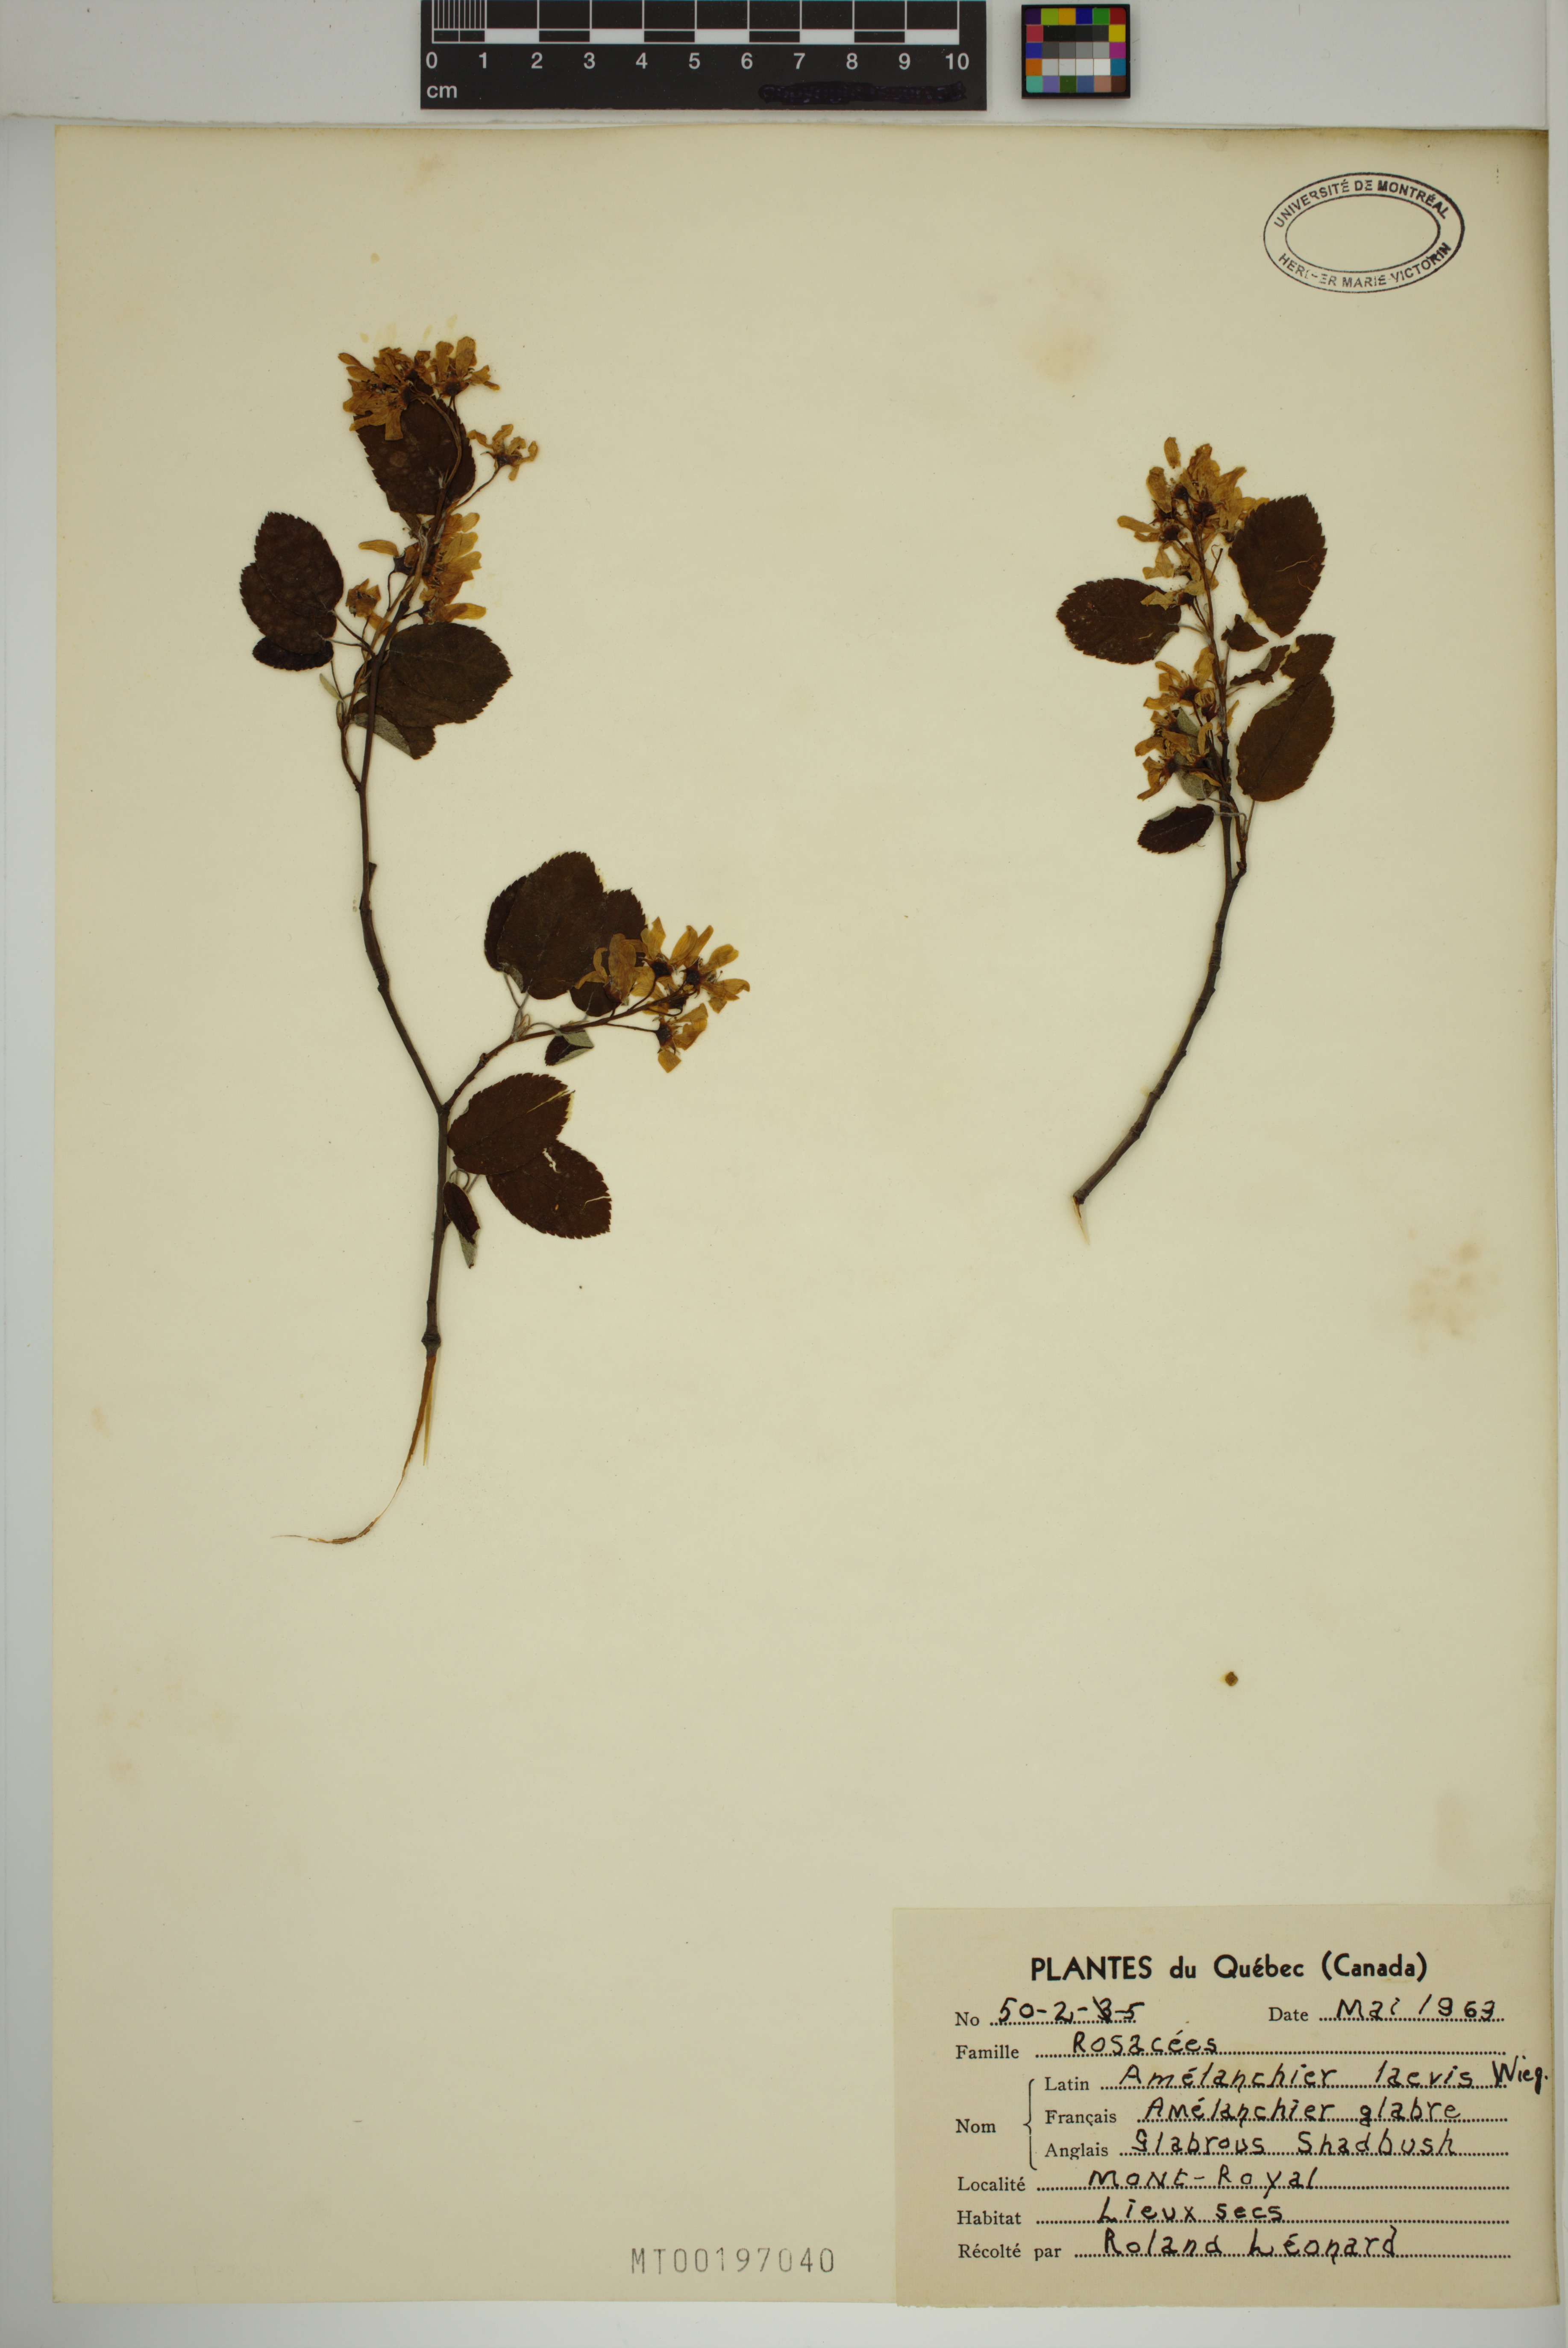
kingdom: Plantae
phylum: Tracheophyta
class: Magnoliopsida
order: Rosales
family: Rosaceae
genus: Amelanchier
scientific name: Amelanchier laevis
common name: Allegheny serviceberry
